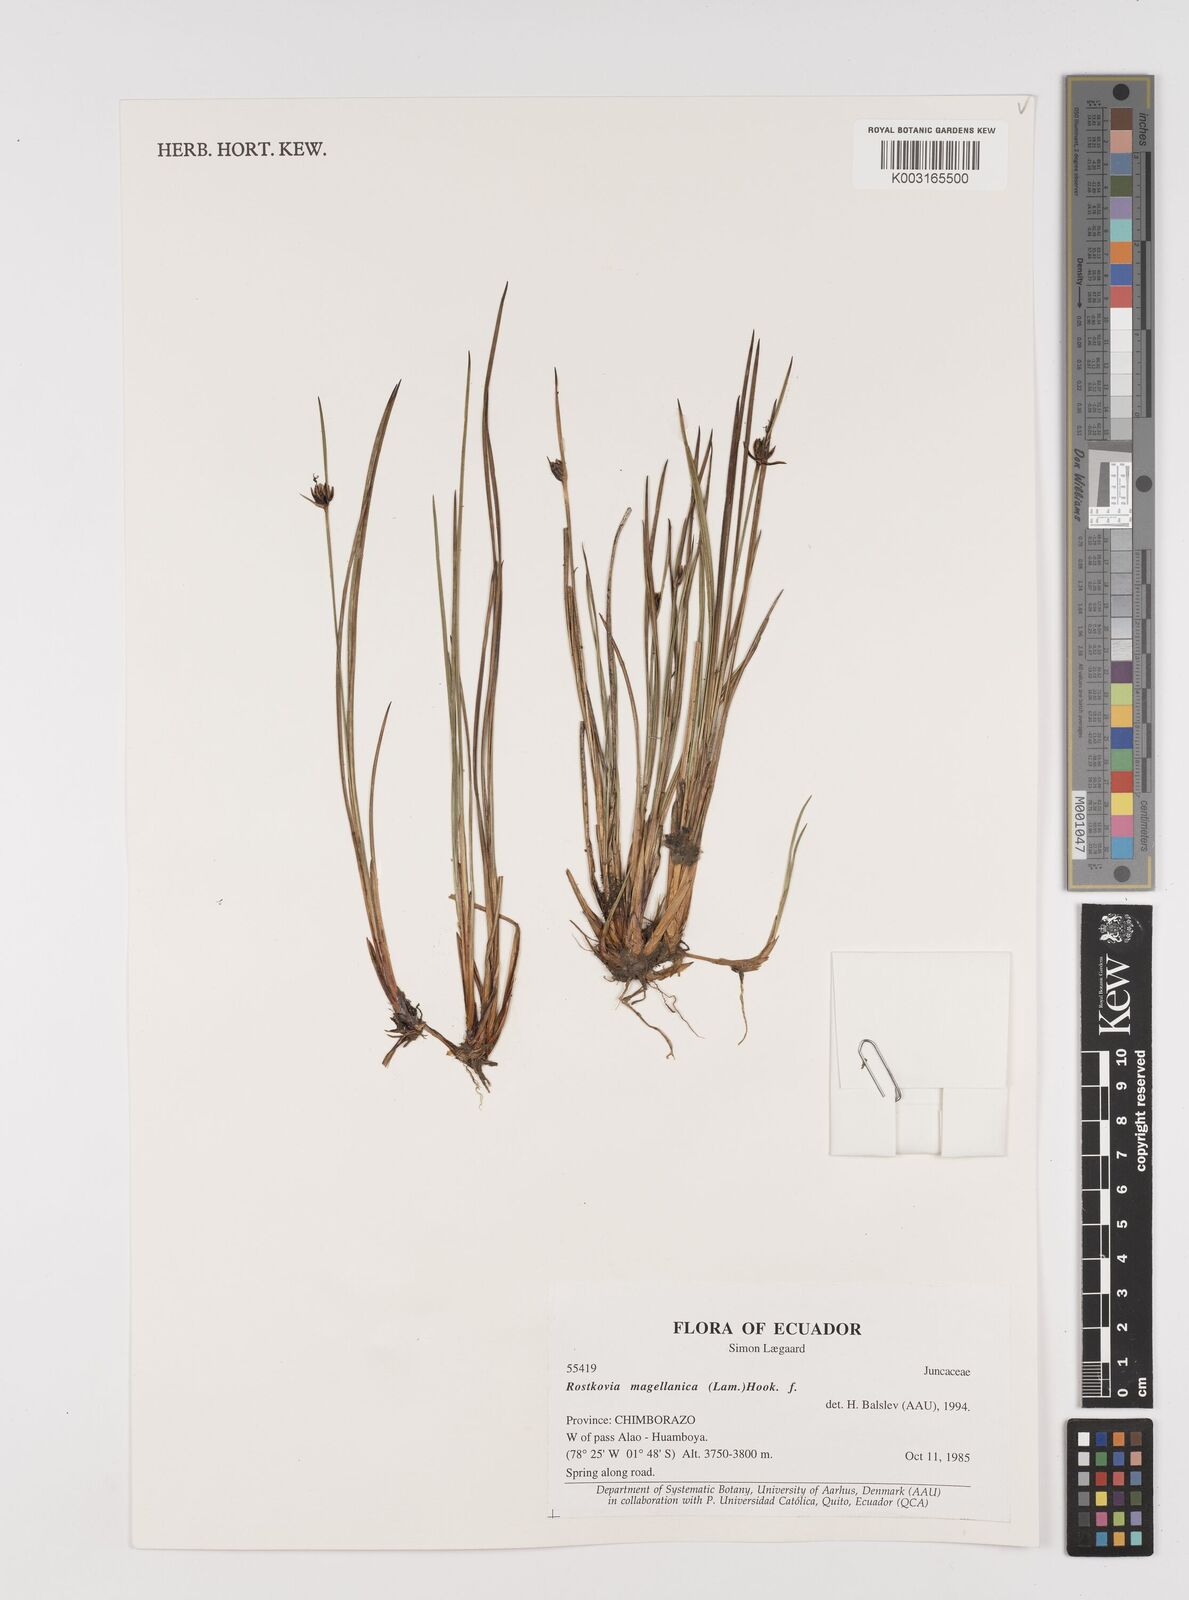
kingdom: Plantae
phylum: Tracheophyta
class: Liliopsida
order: Poales
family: Juncaceae
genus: Rostkovia
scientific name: Rostkovia magellanica
